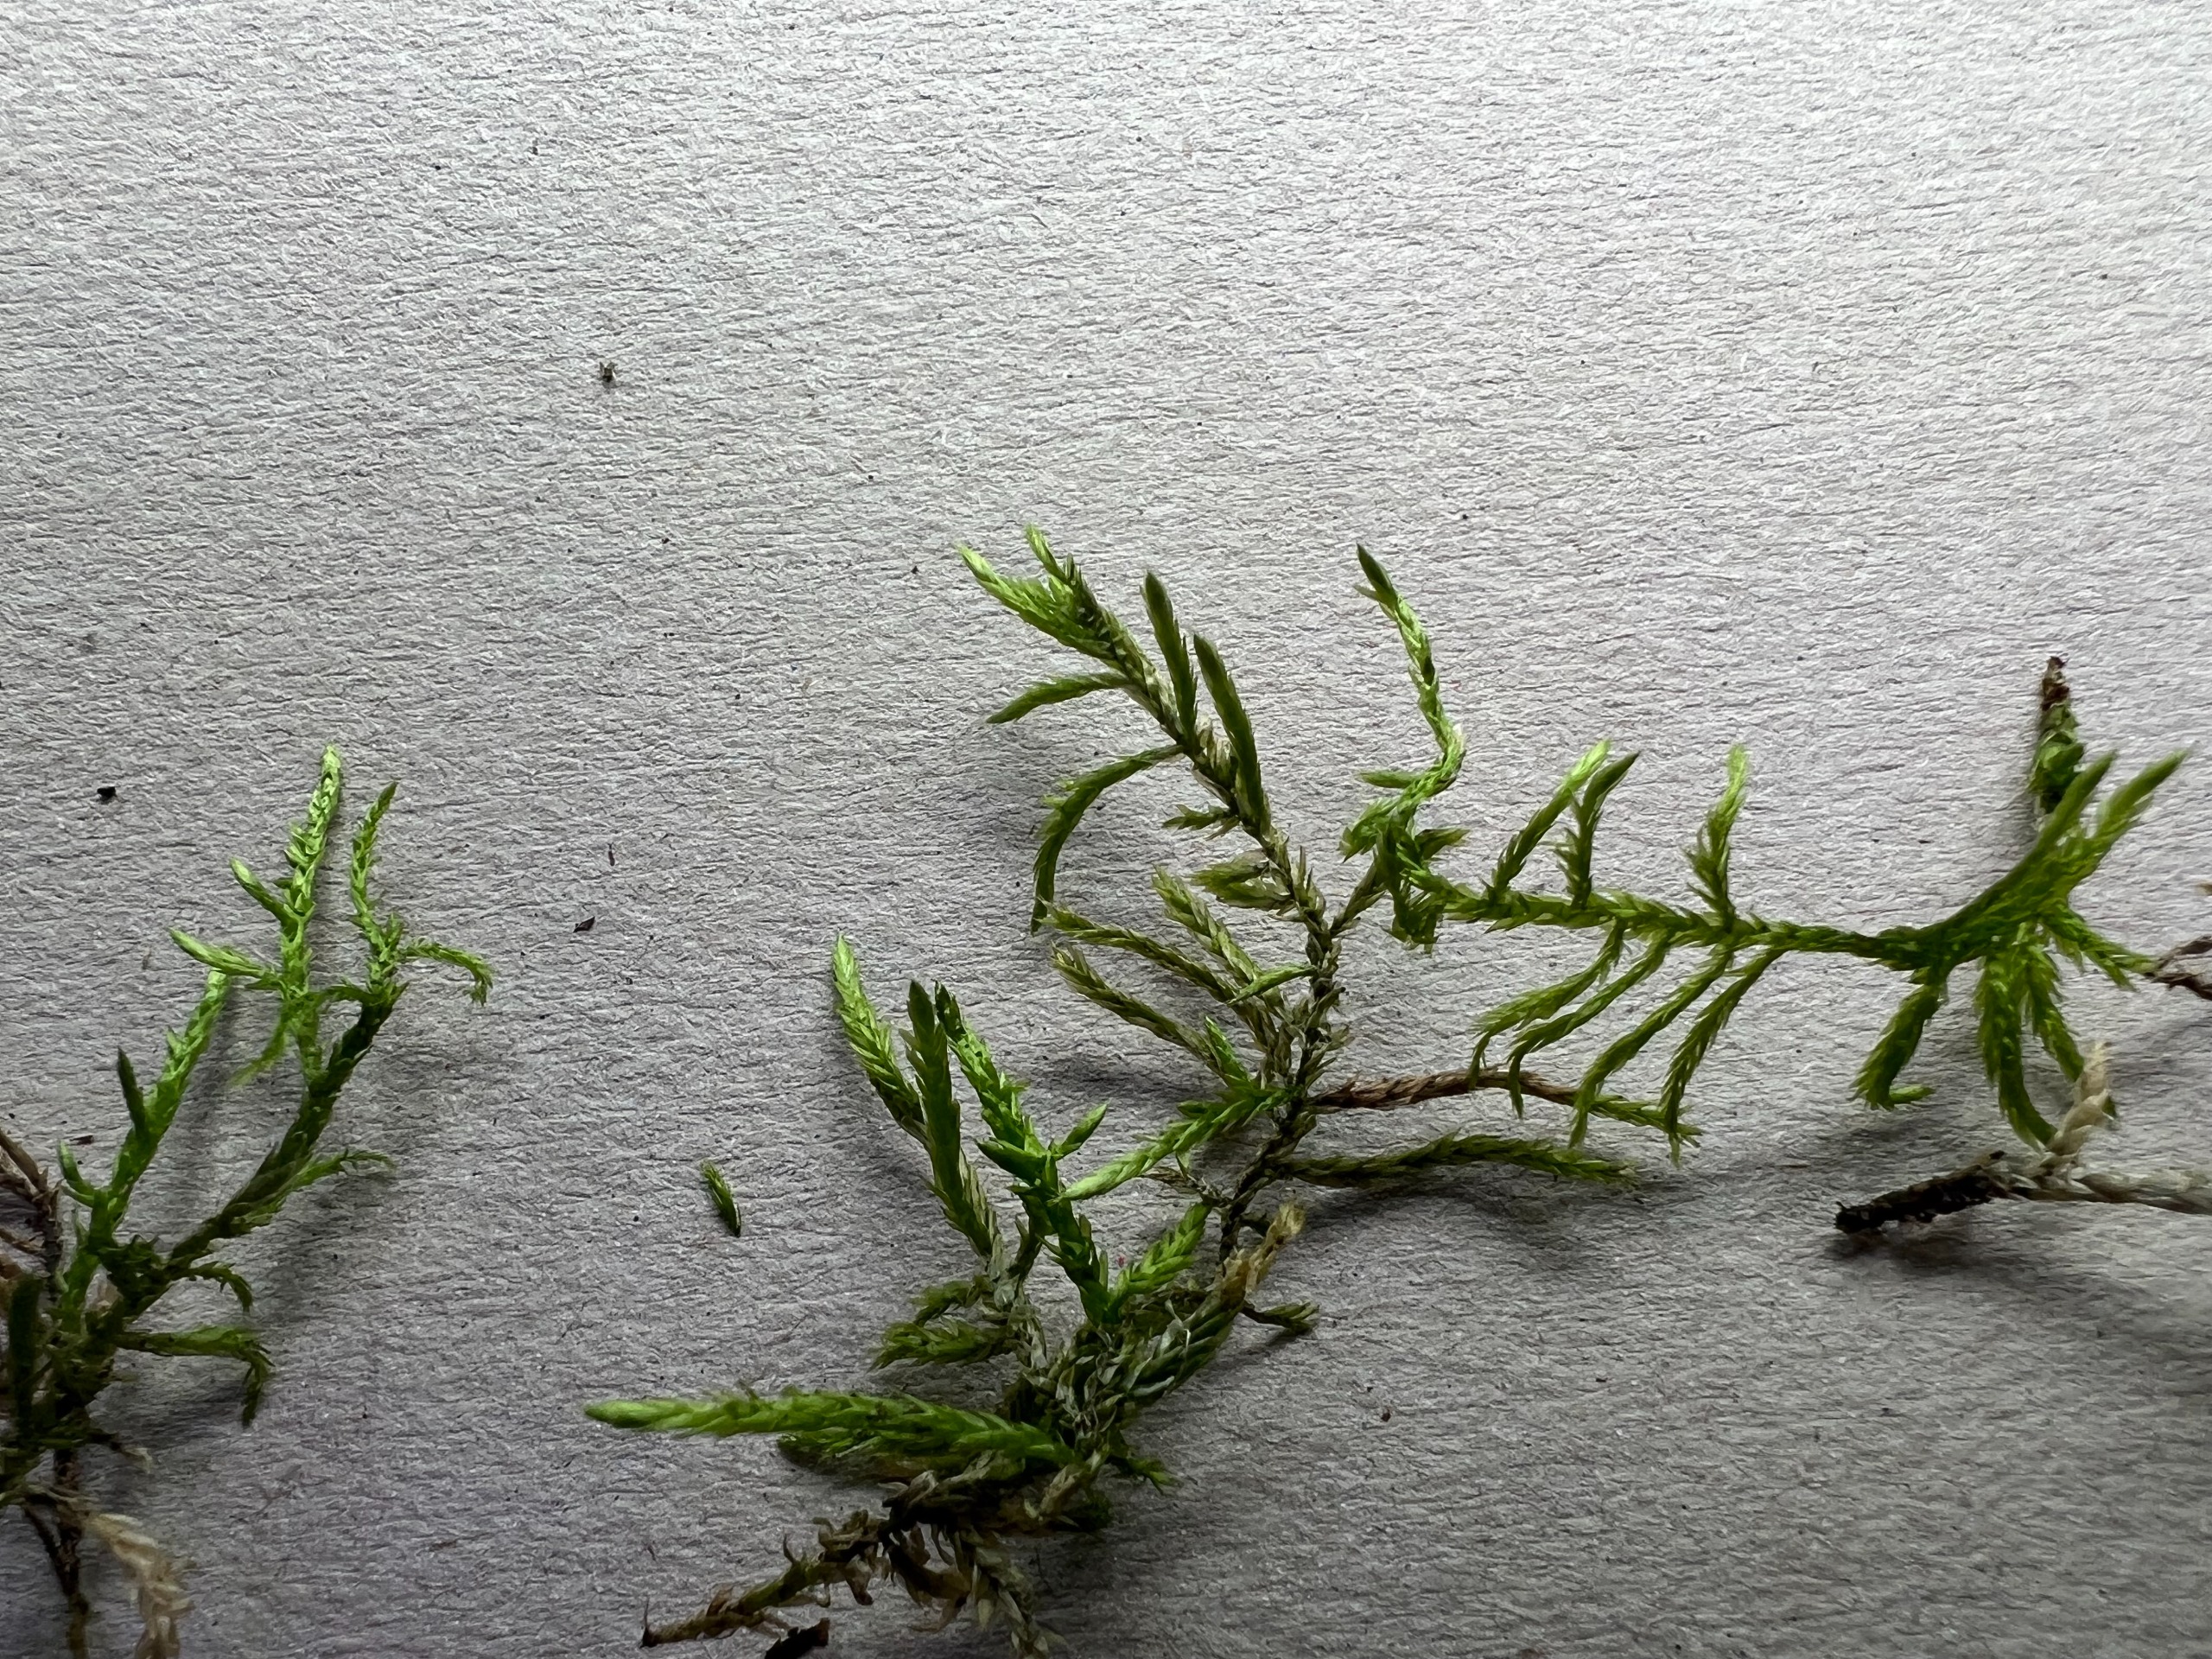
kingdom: Plantae
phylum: Bryophyta
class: Bryopsida
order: Hypnales
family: Brachytheciaceae
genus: Cirriphyllum
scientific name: Cirriphyllum piliferum
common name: Almindelig penselmos
